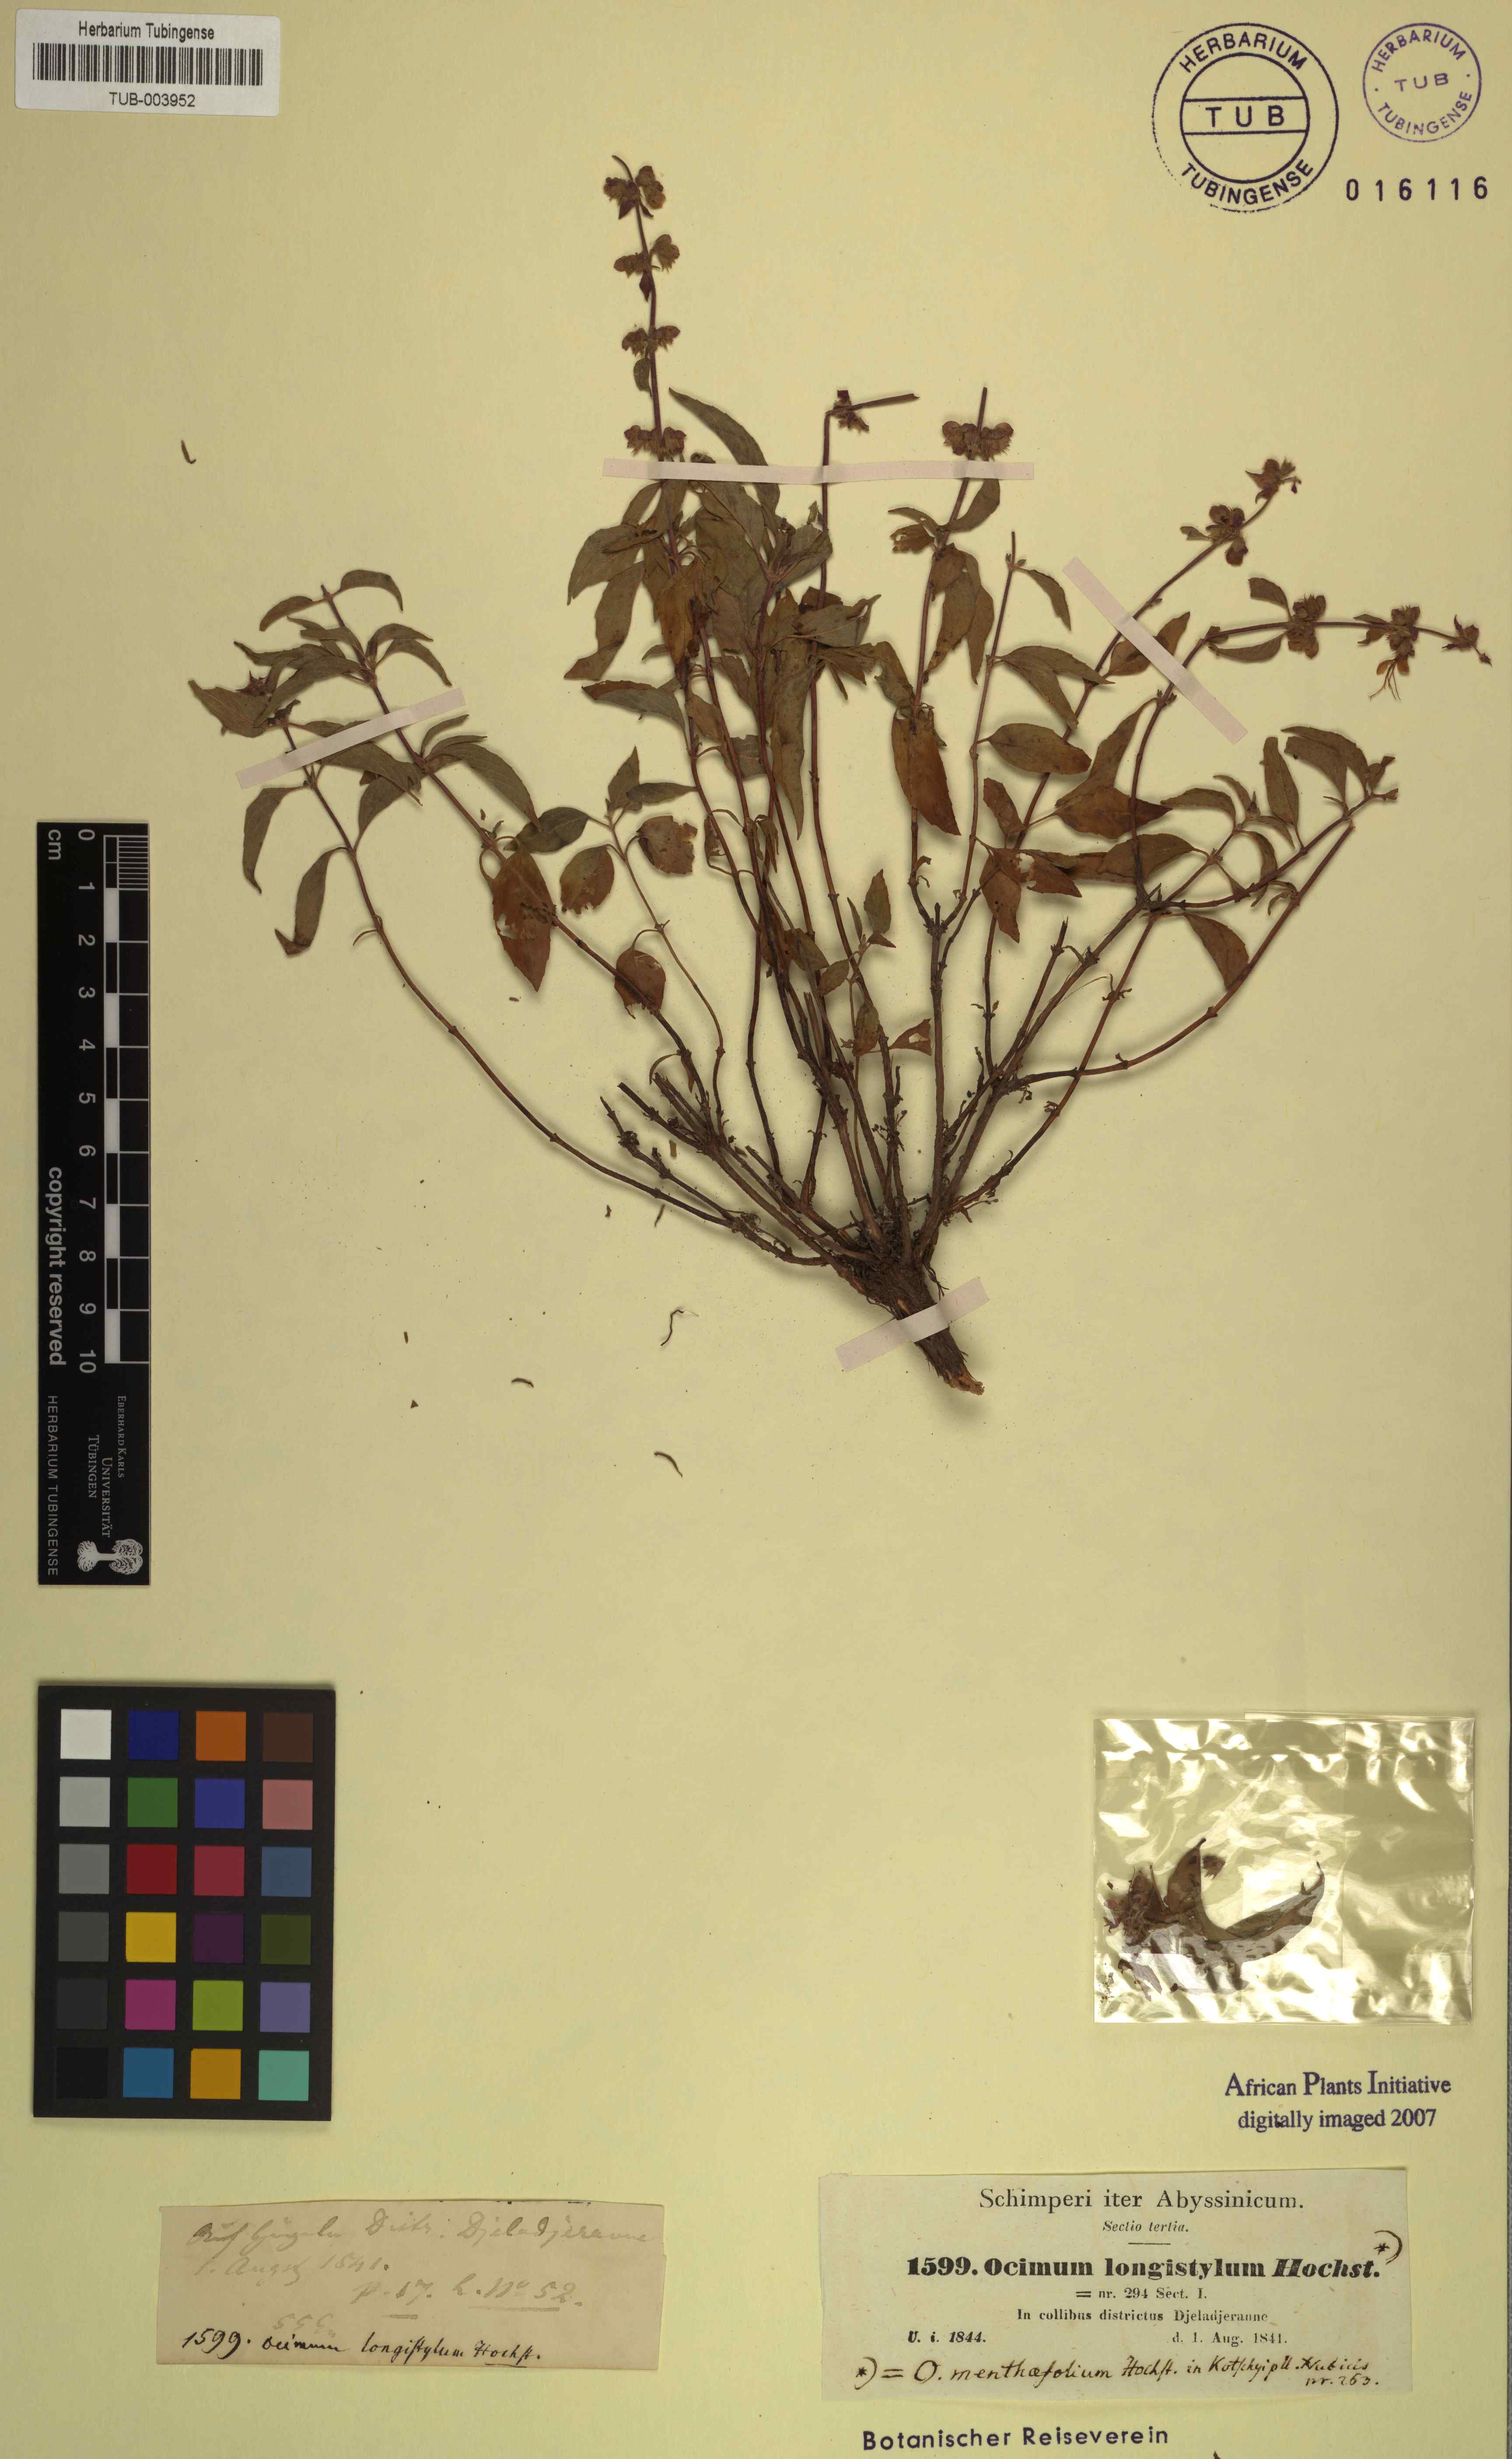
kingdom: Plantae
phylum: Tracheophyta
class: Magnoliopsida
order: Lamiales
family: Lamiaceae
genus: Ocimum
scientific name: Ocimum forskoelei
